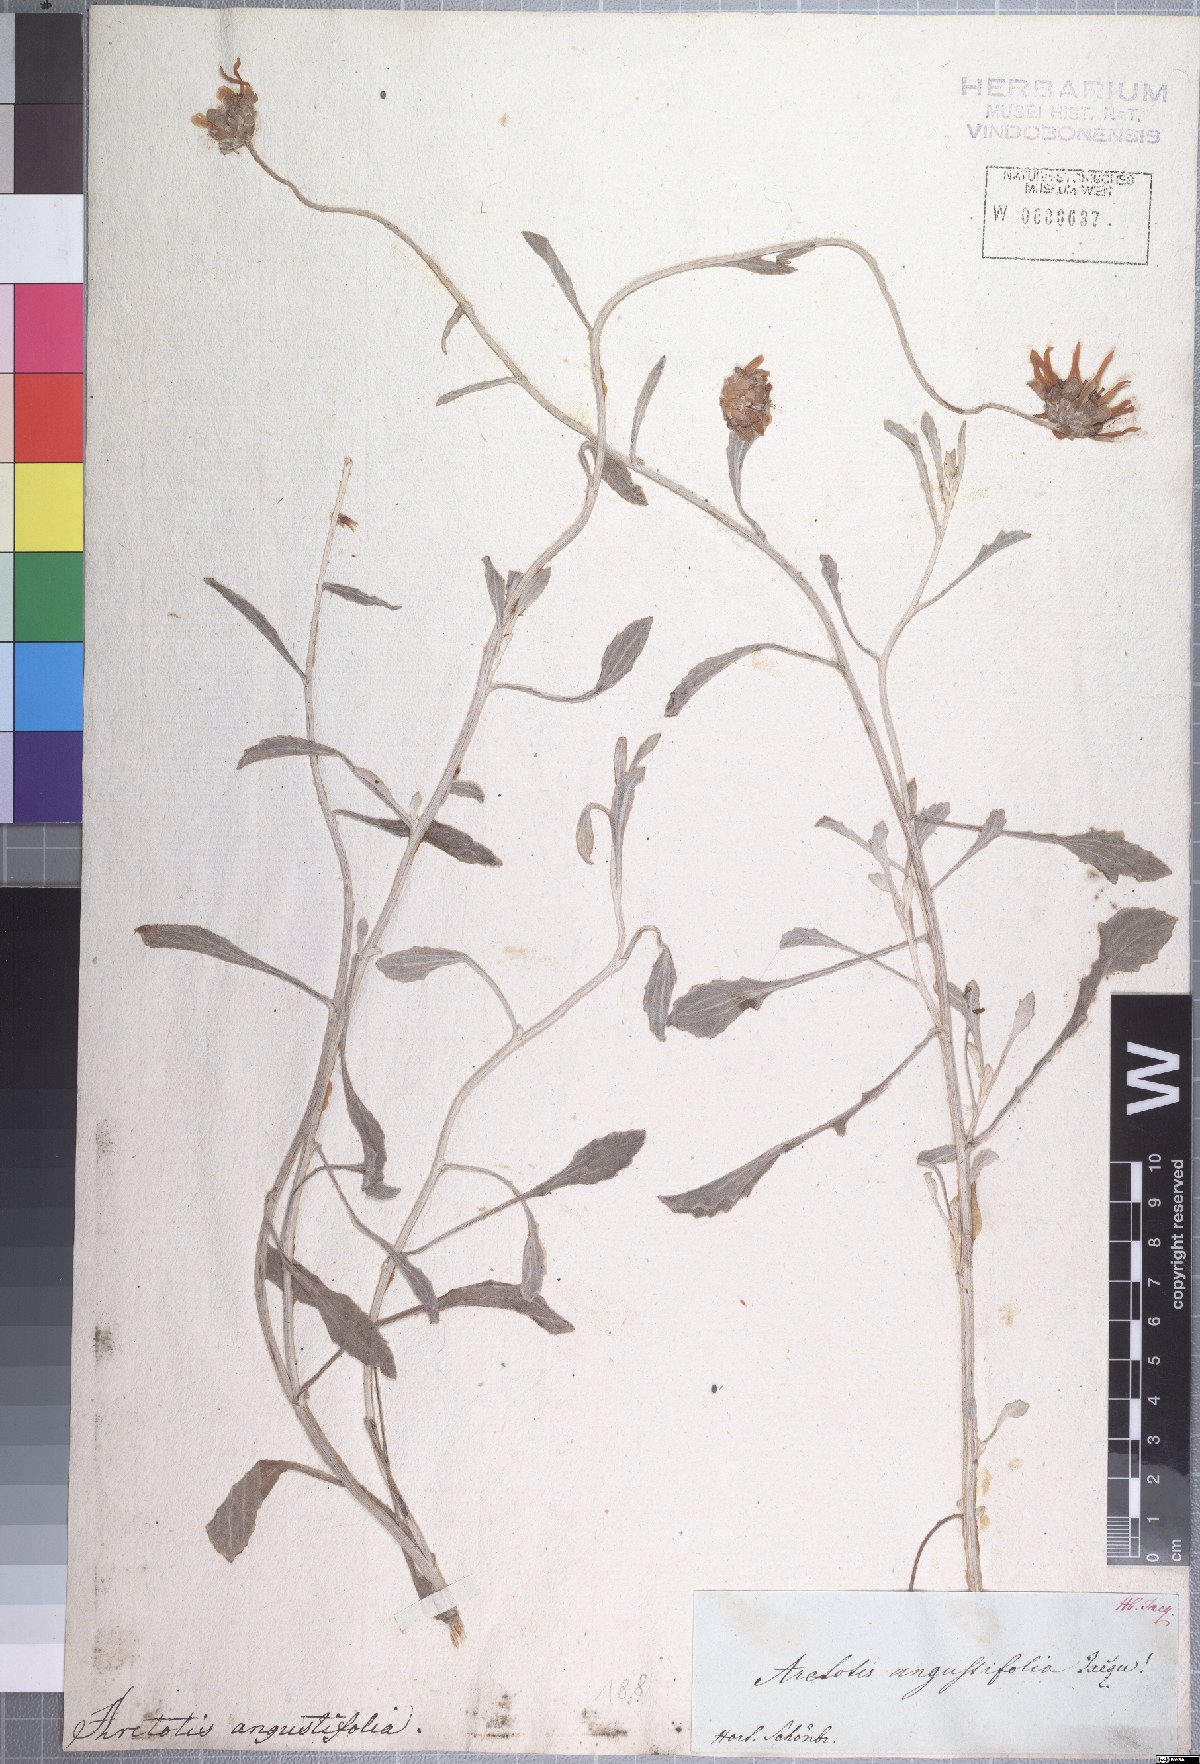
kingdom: Plantae
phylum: Tracheophyta
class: Magnoliopsida
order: Asterales
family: Asteraceae
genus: Arctotis
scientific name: Arctotis aspera
